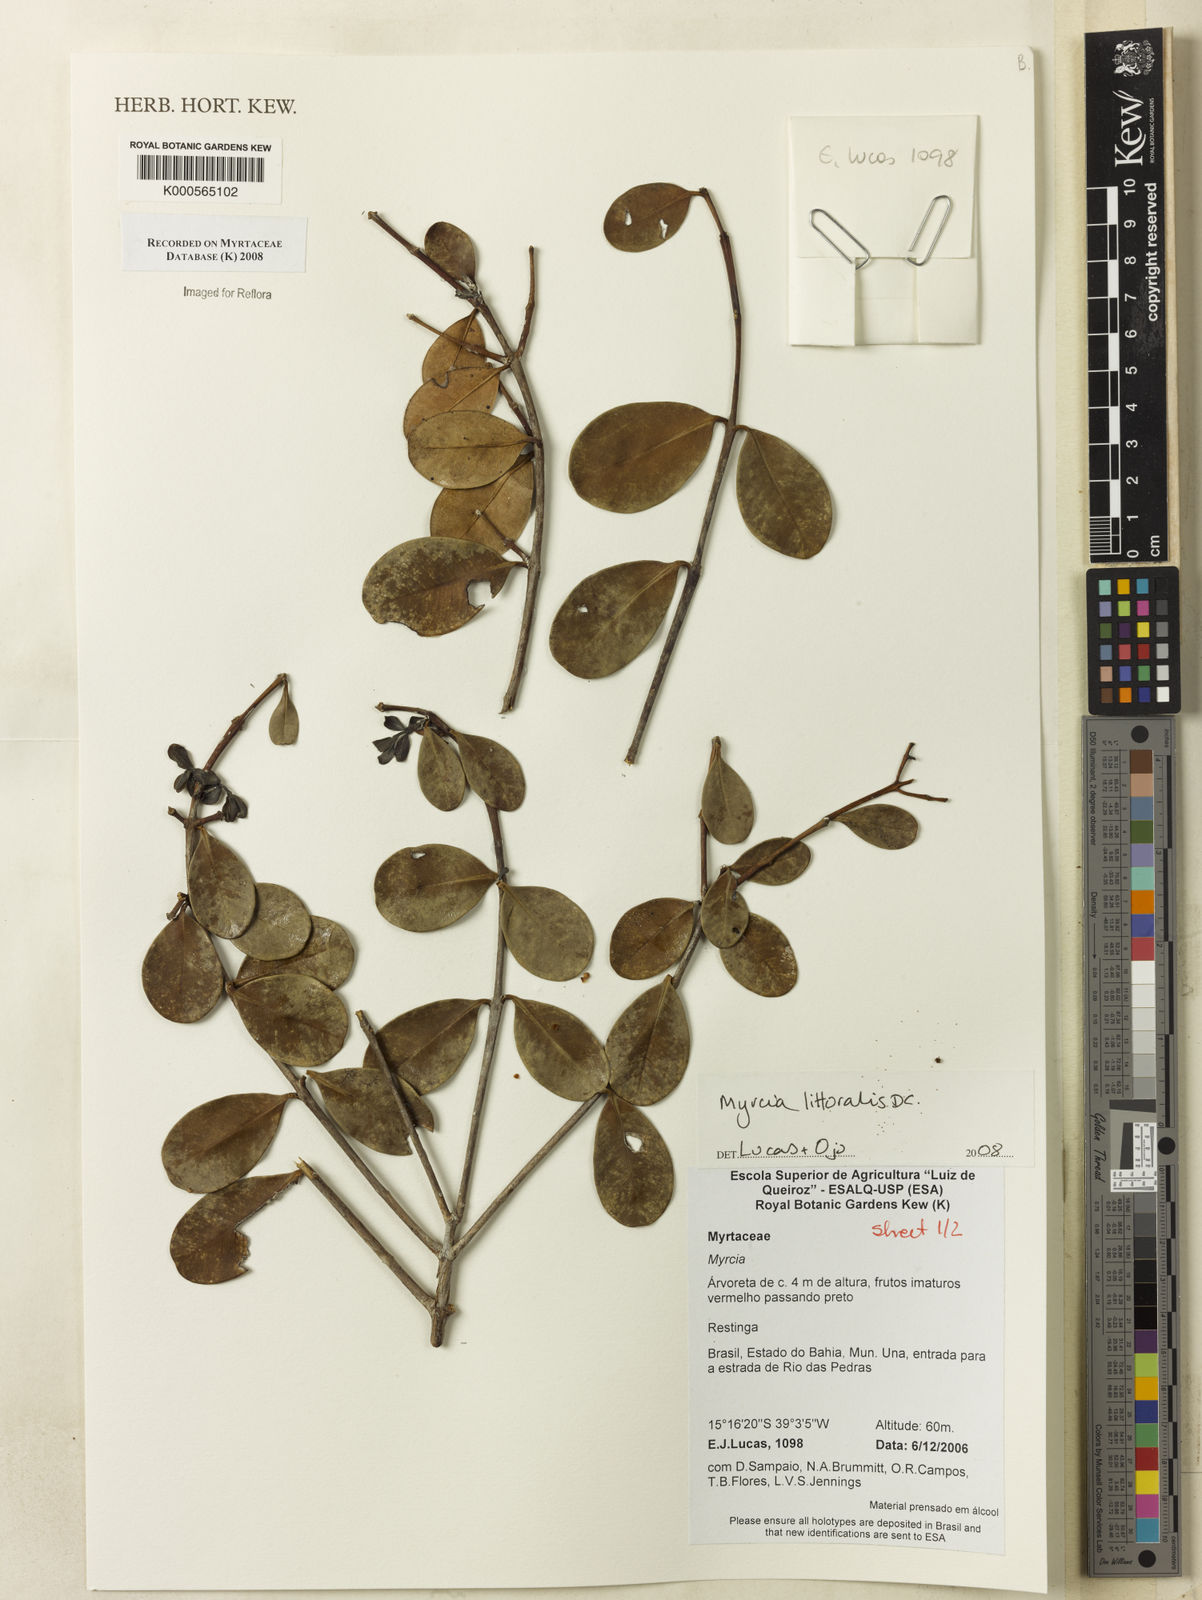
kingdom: Plantae
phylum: Tracheophyta
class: Magnoliopsida
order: Myrtales
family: Myrtaceae
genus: Myrcia
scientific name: Myrcia littoralis
